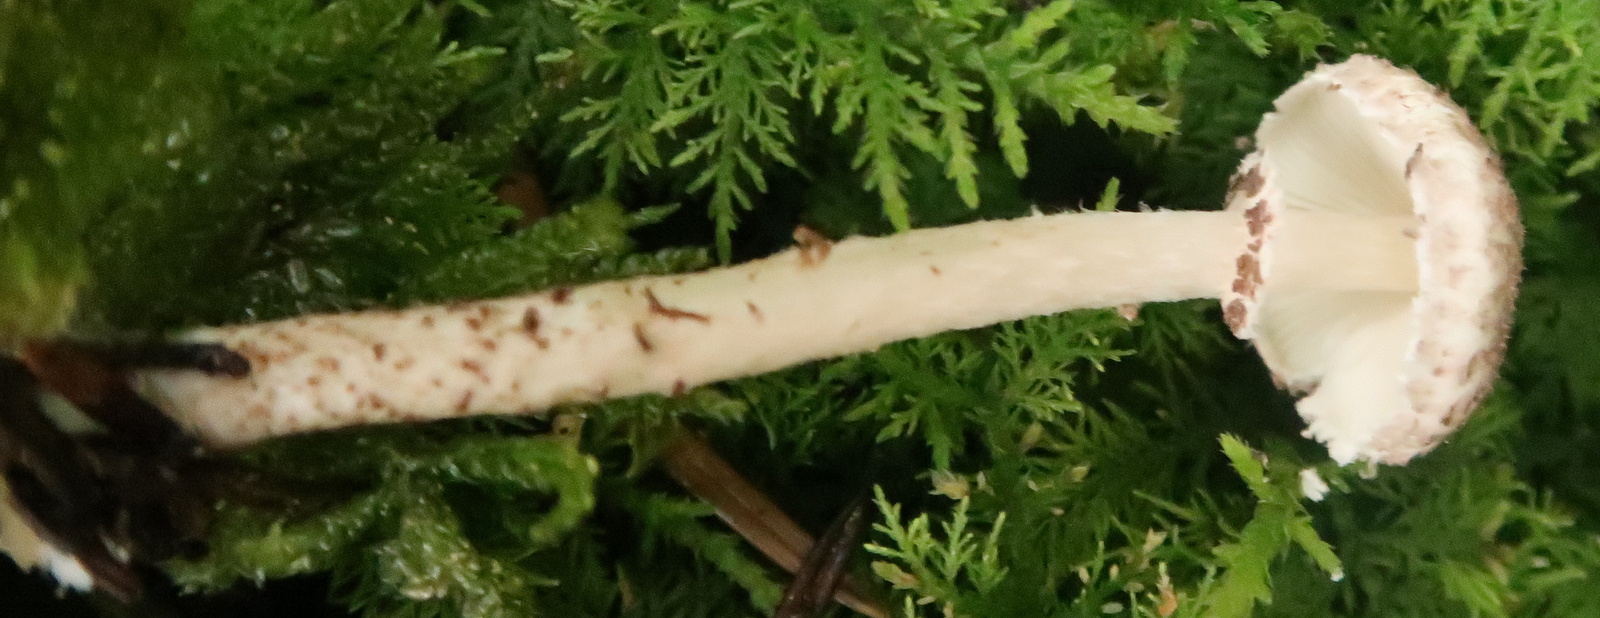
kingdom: Fungi
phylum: Basidiomycota
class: Agaricomycetes
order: Agaricales
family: Agaricaceae
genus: Lepiota
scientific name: Lepiota felina
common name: sortskællet parasolhat
